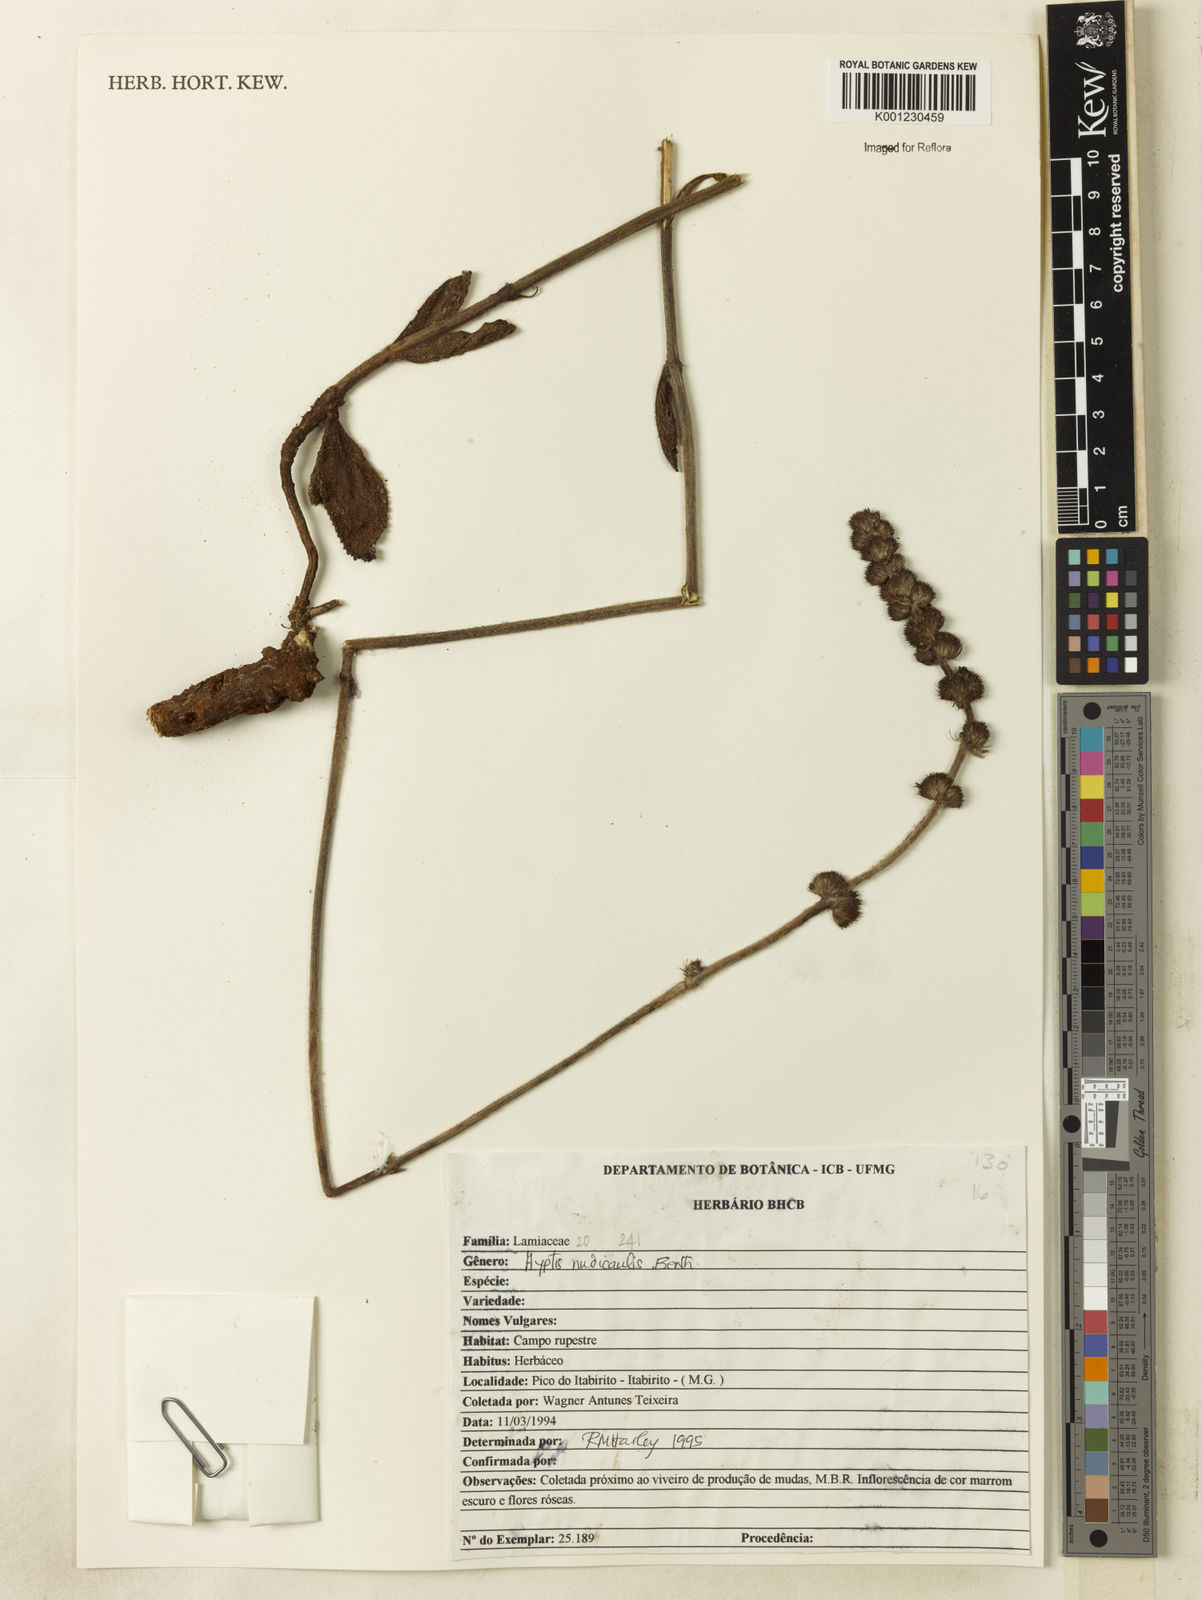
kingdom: Plantae
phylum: Tracheophyta
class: Magnoliopsida
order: Lamiales
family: Lamiaceae
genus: Hyptis
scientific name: Hyptis nudicaulis
